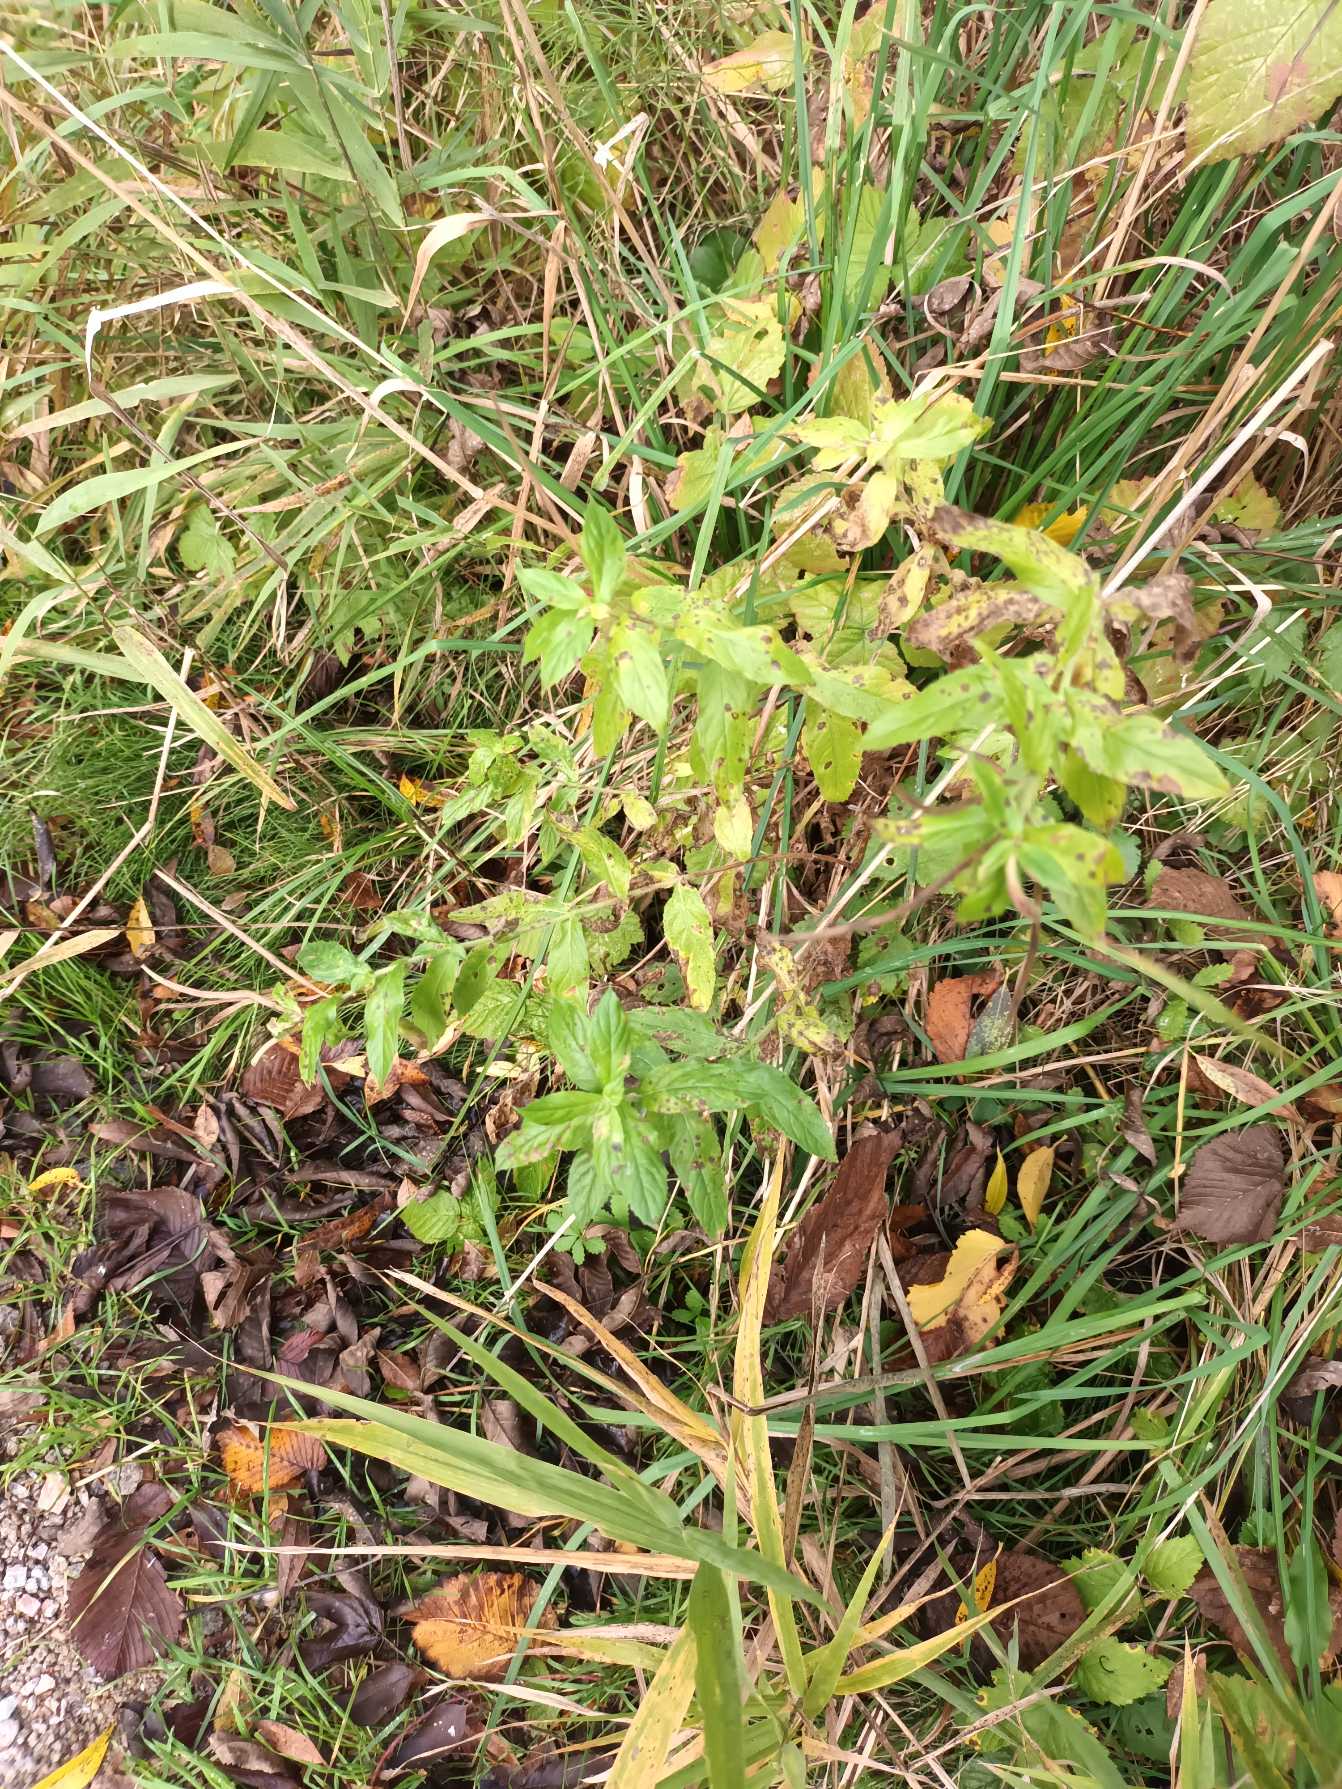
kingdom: Plantae
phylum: Tracheophyta
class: Magnoliopsida
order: Myrtales
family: Onagraceae
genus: Epilobium
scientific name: Epilobium hirsutum
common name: Lådden dueurt
